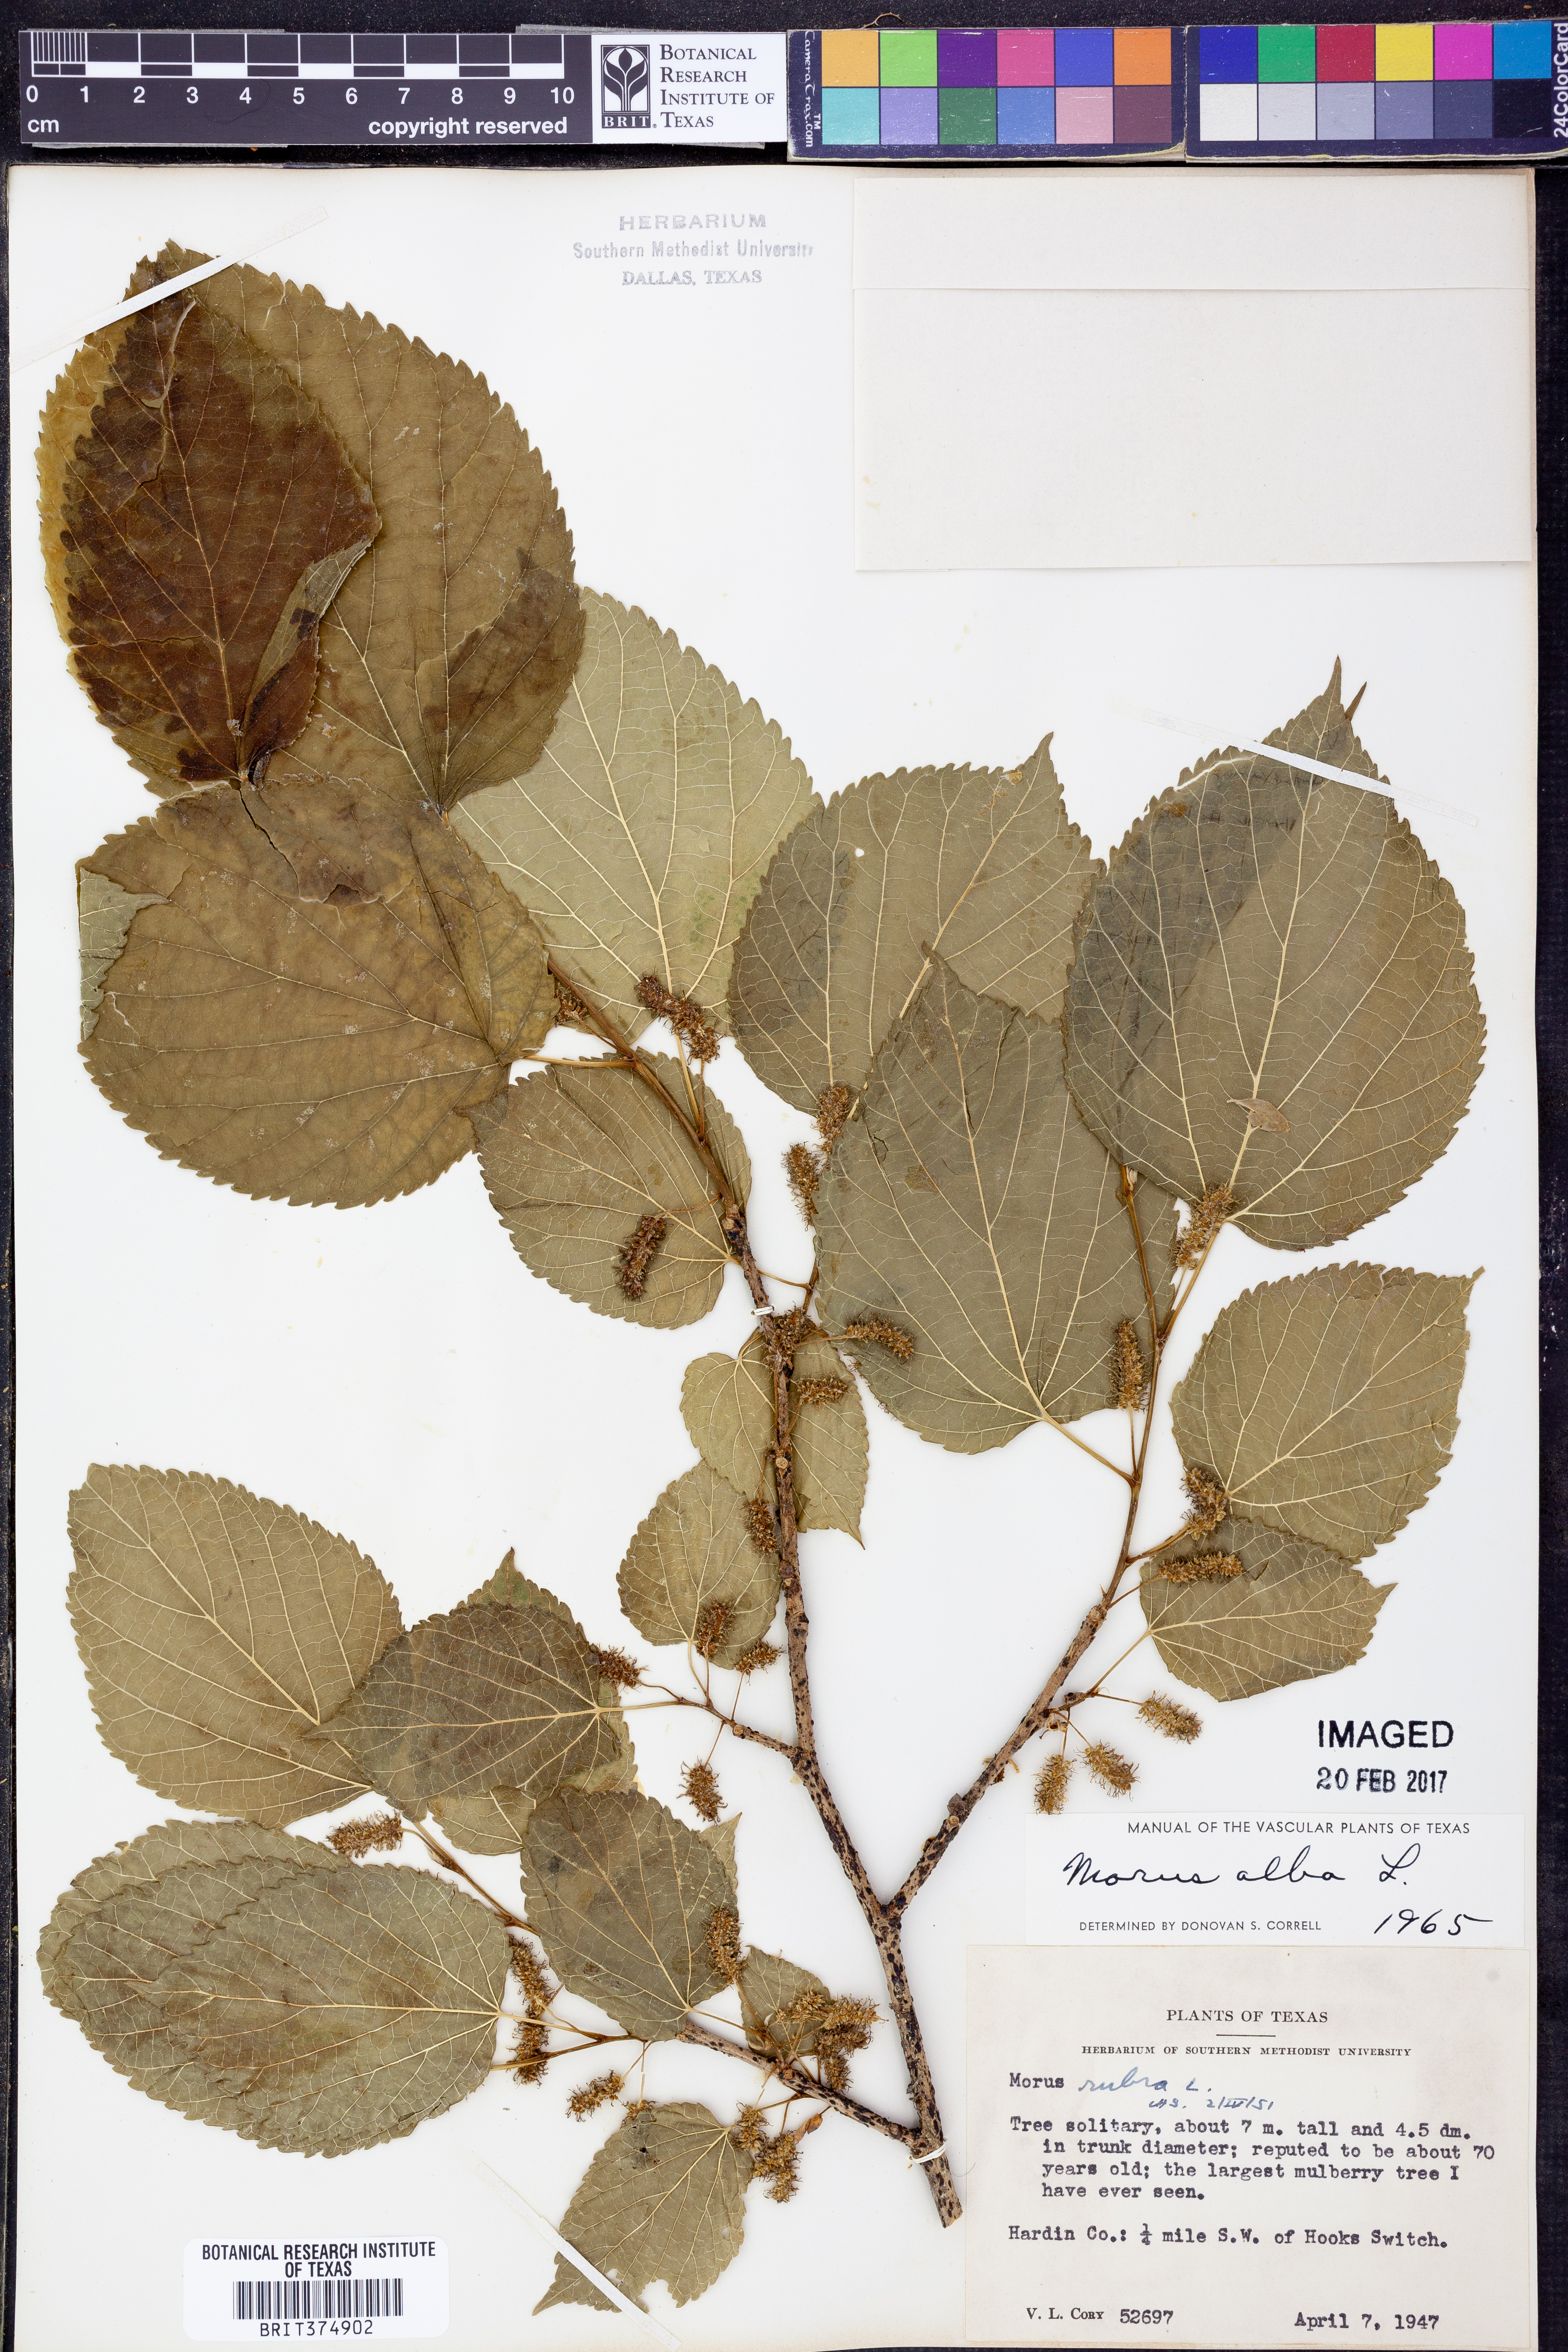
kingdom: Plantae
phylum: Tracheophyta
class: Magnoliopsida
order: Rosales
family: Moraceae
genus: Morus
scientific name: Morus alba
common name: White mulberry
